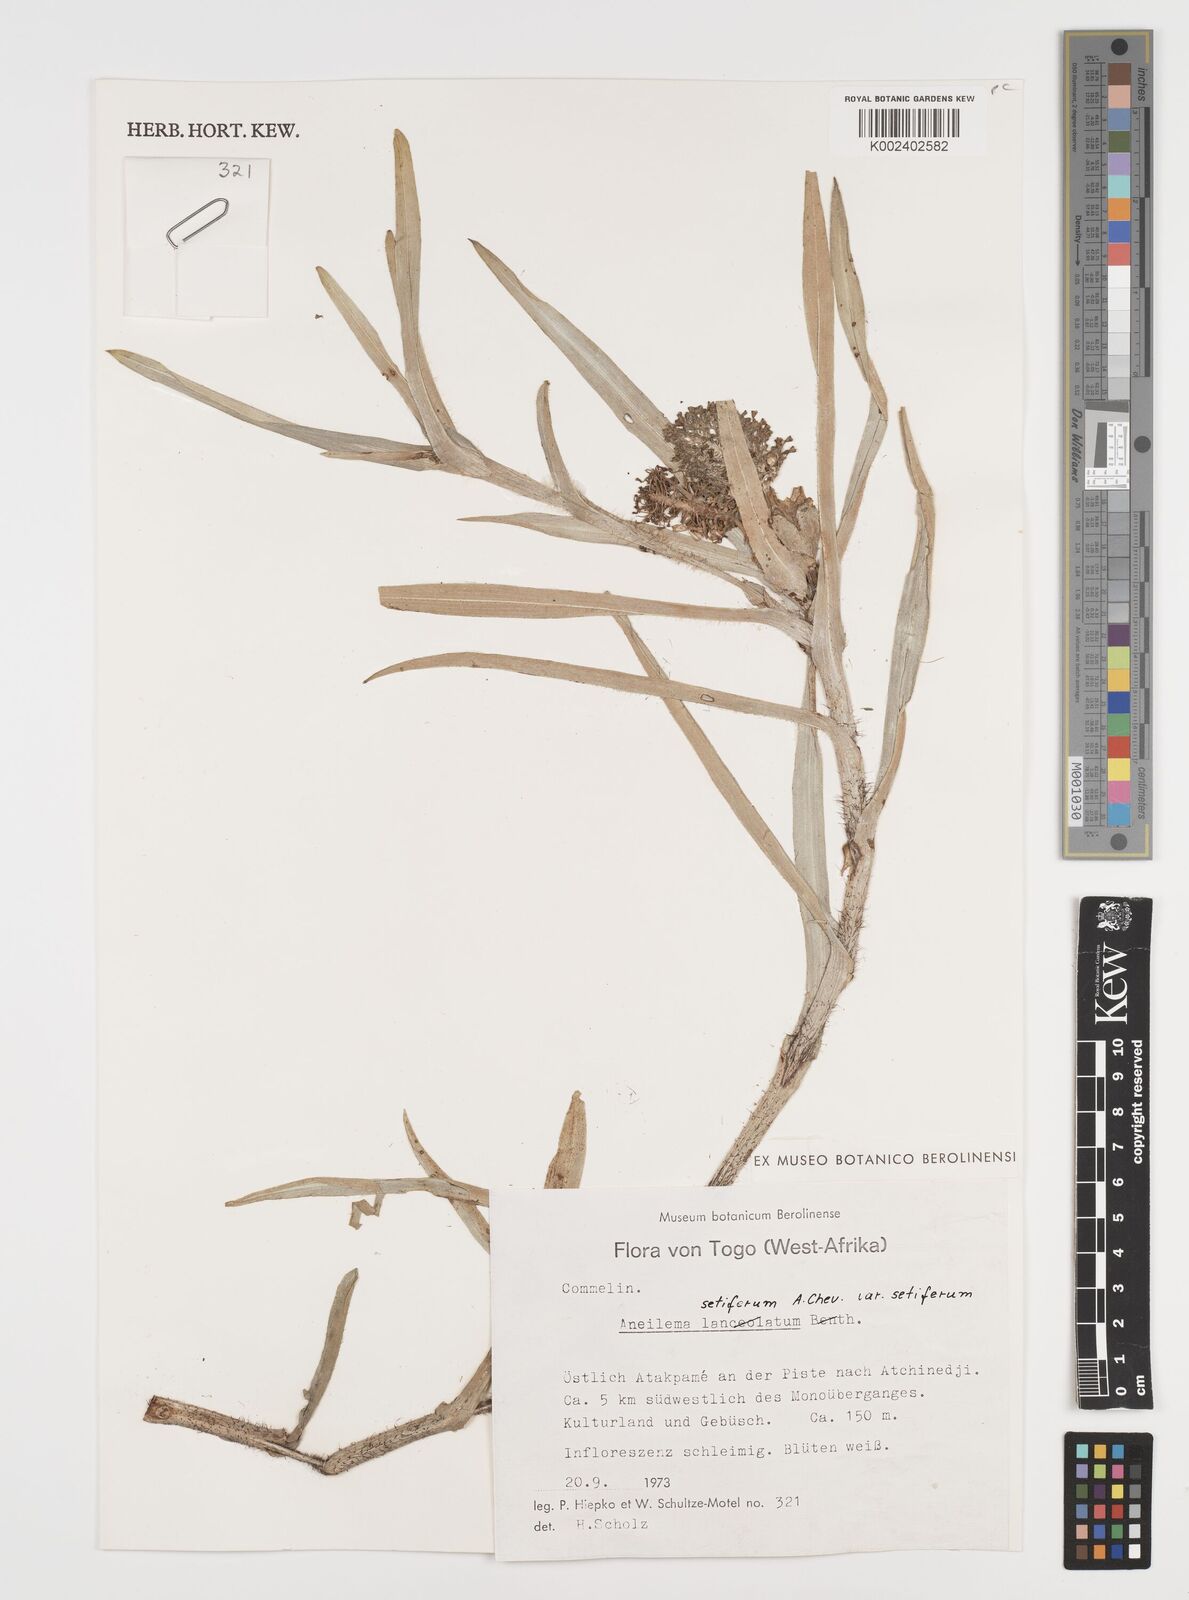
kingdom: Plantae
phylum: Tracheophyta
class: Liliopsida
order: Commelinales
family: Commelinaceae
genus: Aneilema
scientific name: Aneilema setiferum
